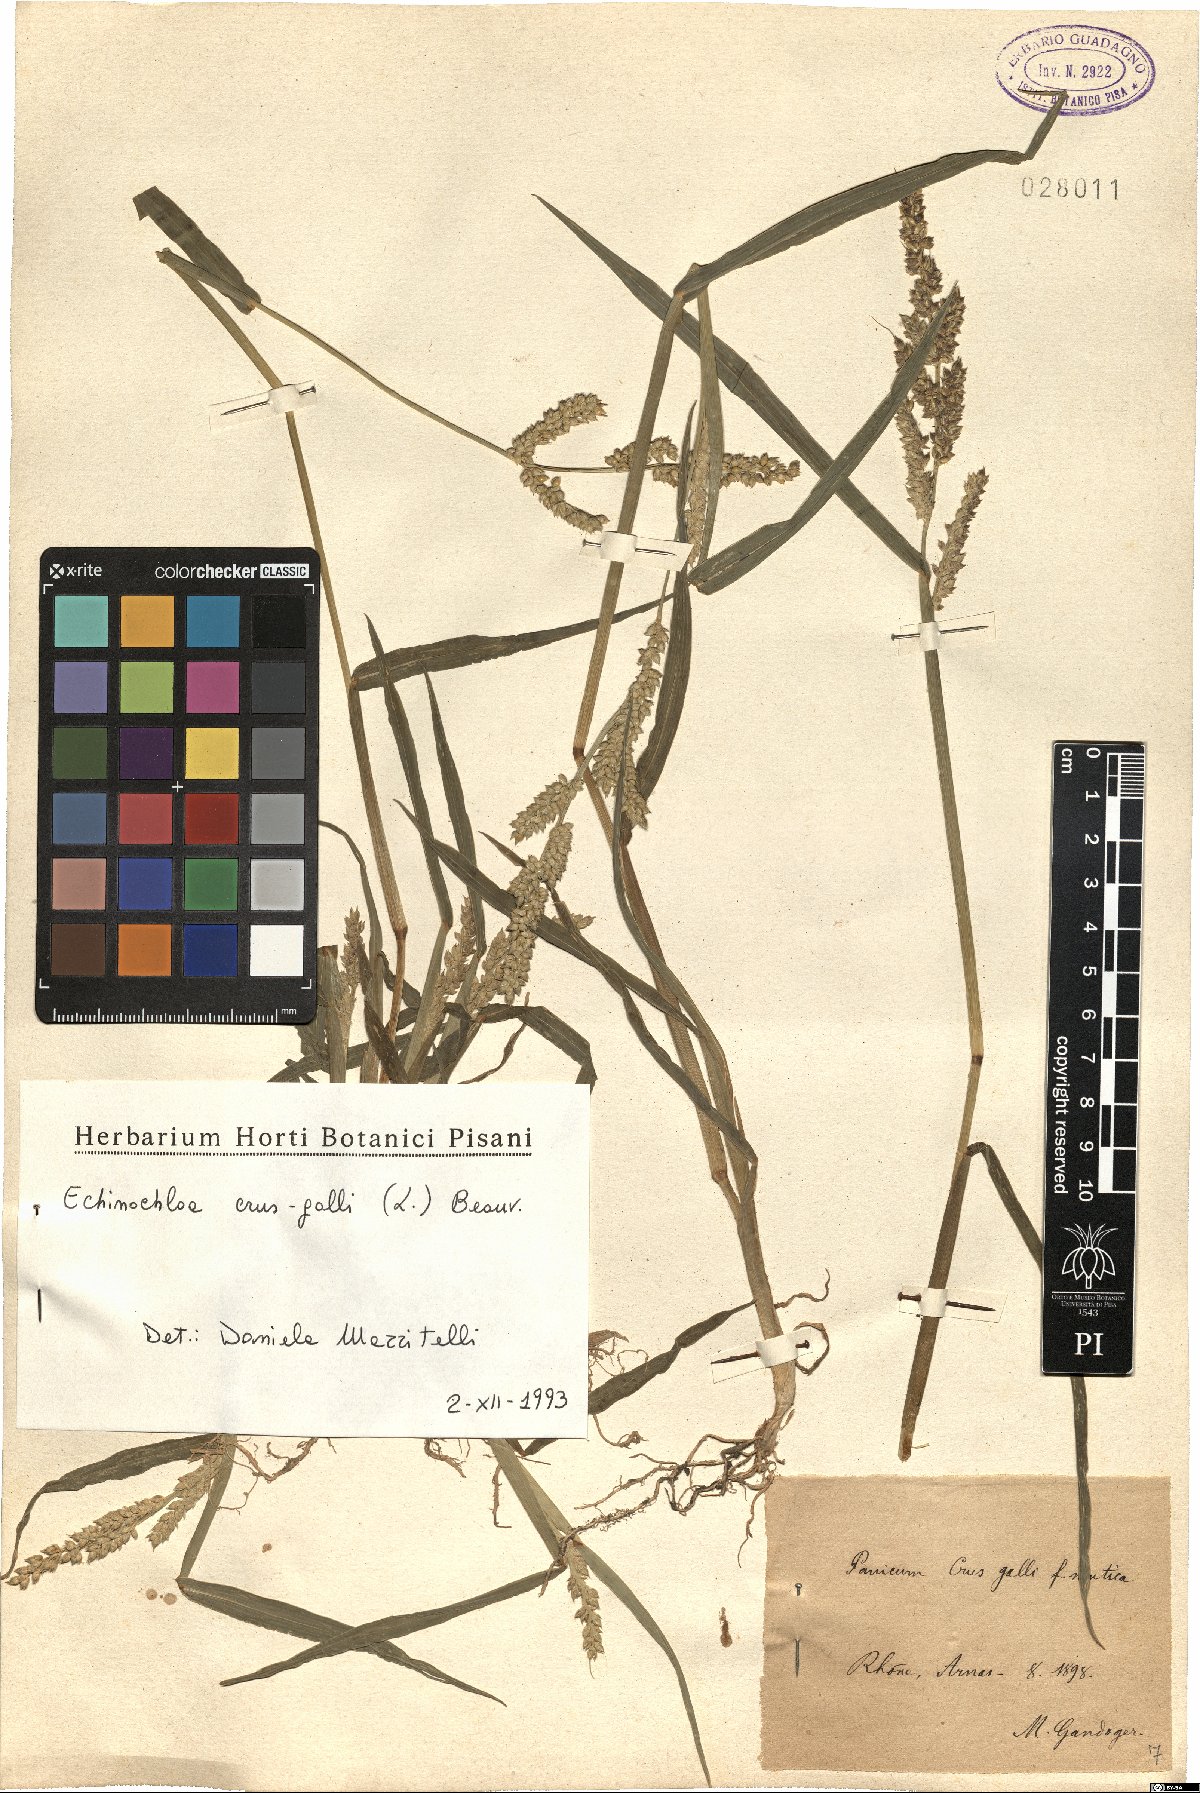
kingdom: Plantae
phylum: Tracheophyta
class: Liliopsida
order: Poales
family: Poaceae
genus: Echinochloa
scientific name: Echinochloa crus-galli
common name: Cockspur
